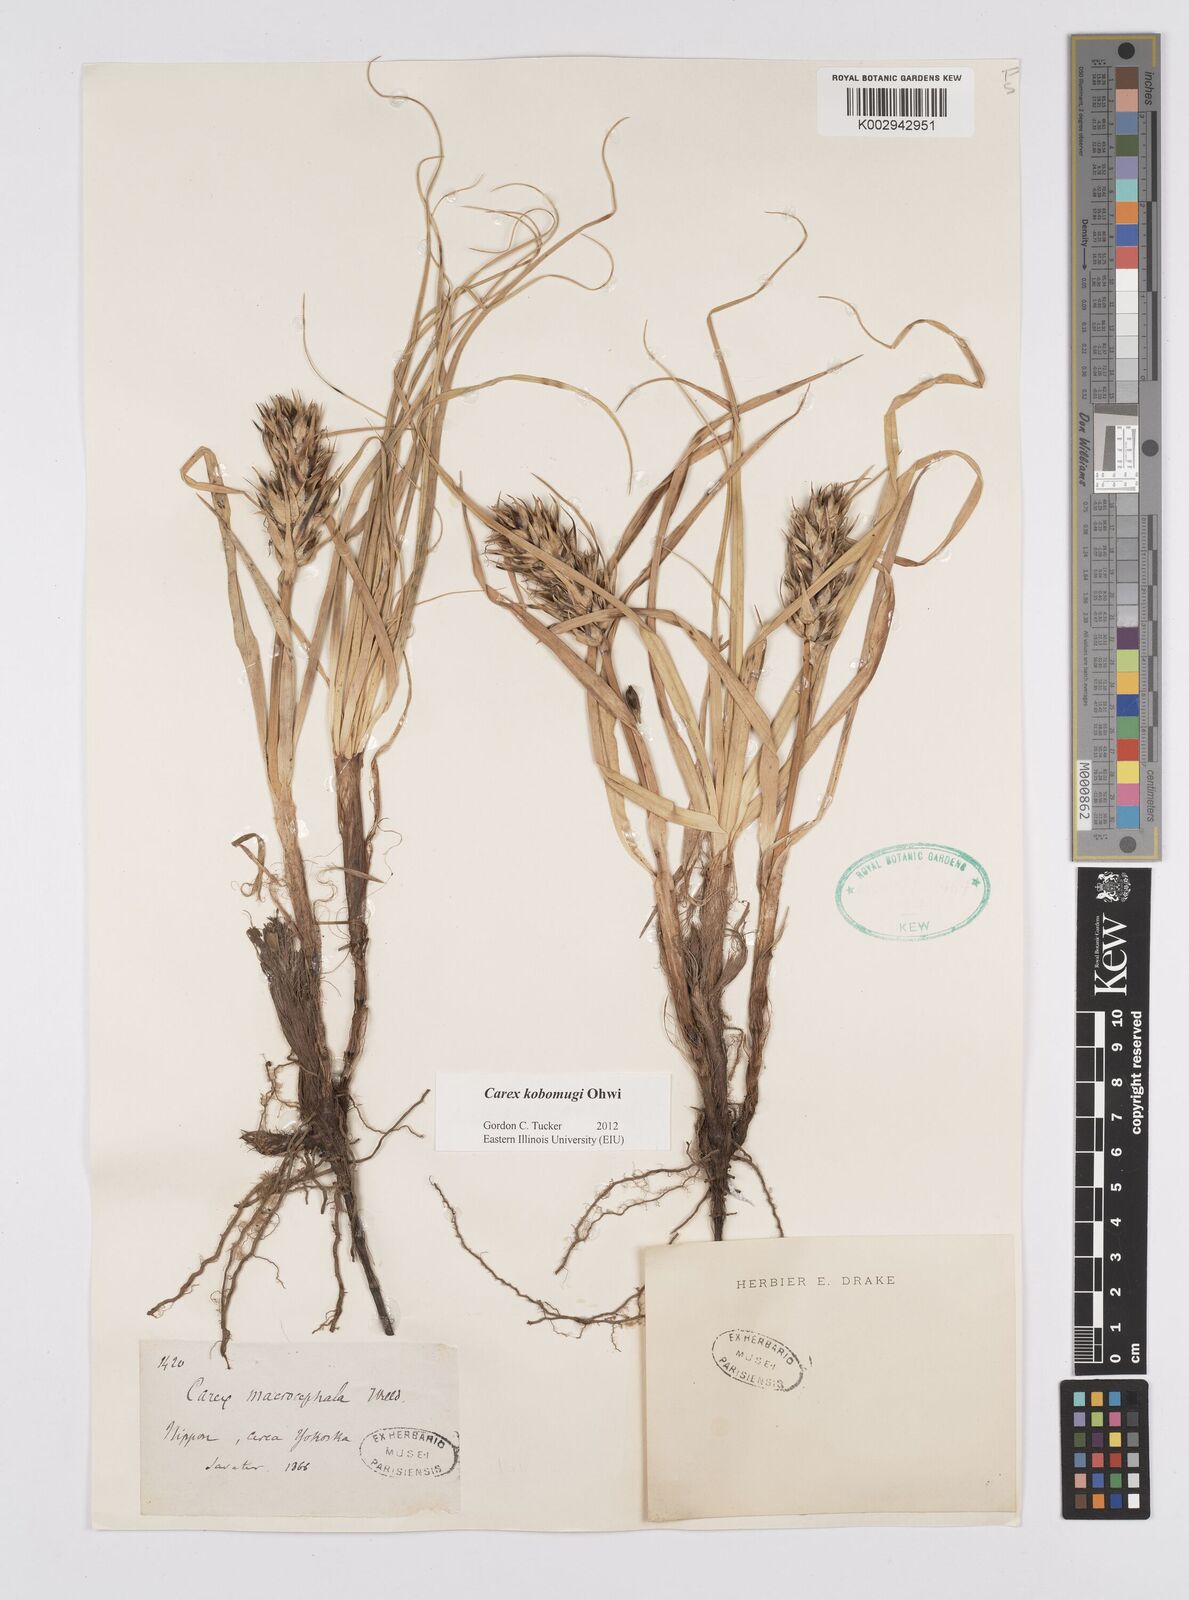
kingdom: Plantae
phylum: Tracheophyta
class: Liliopsida
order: Poales
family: Cyperaceae
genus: Carex
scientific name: Carex kobomugi
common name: Japanese sedge
